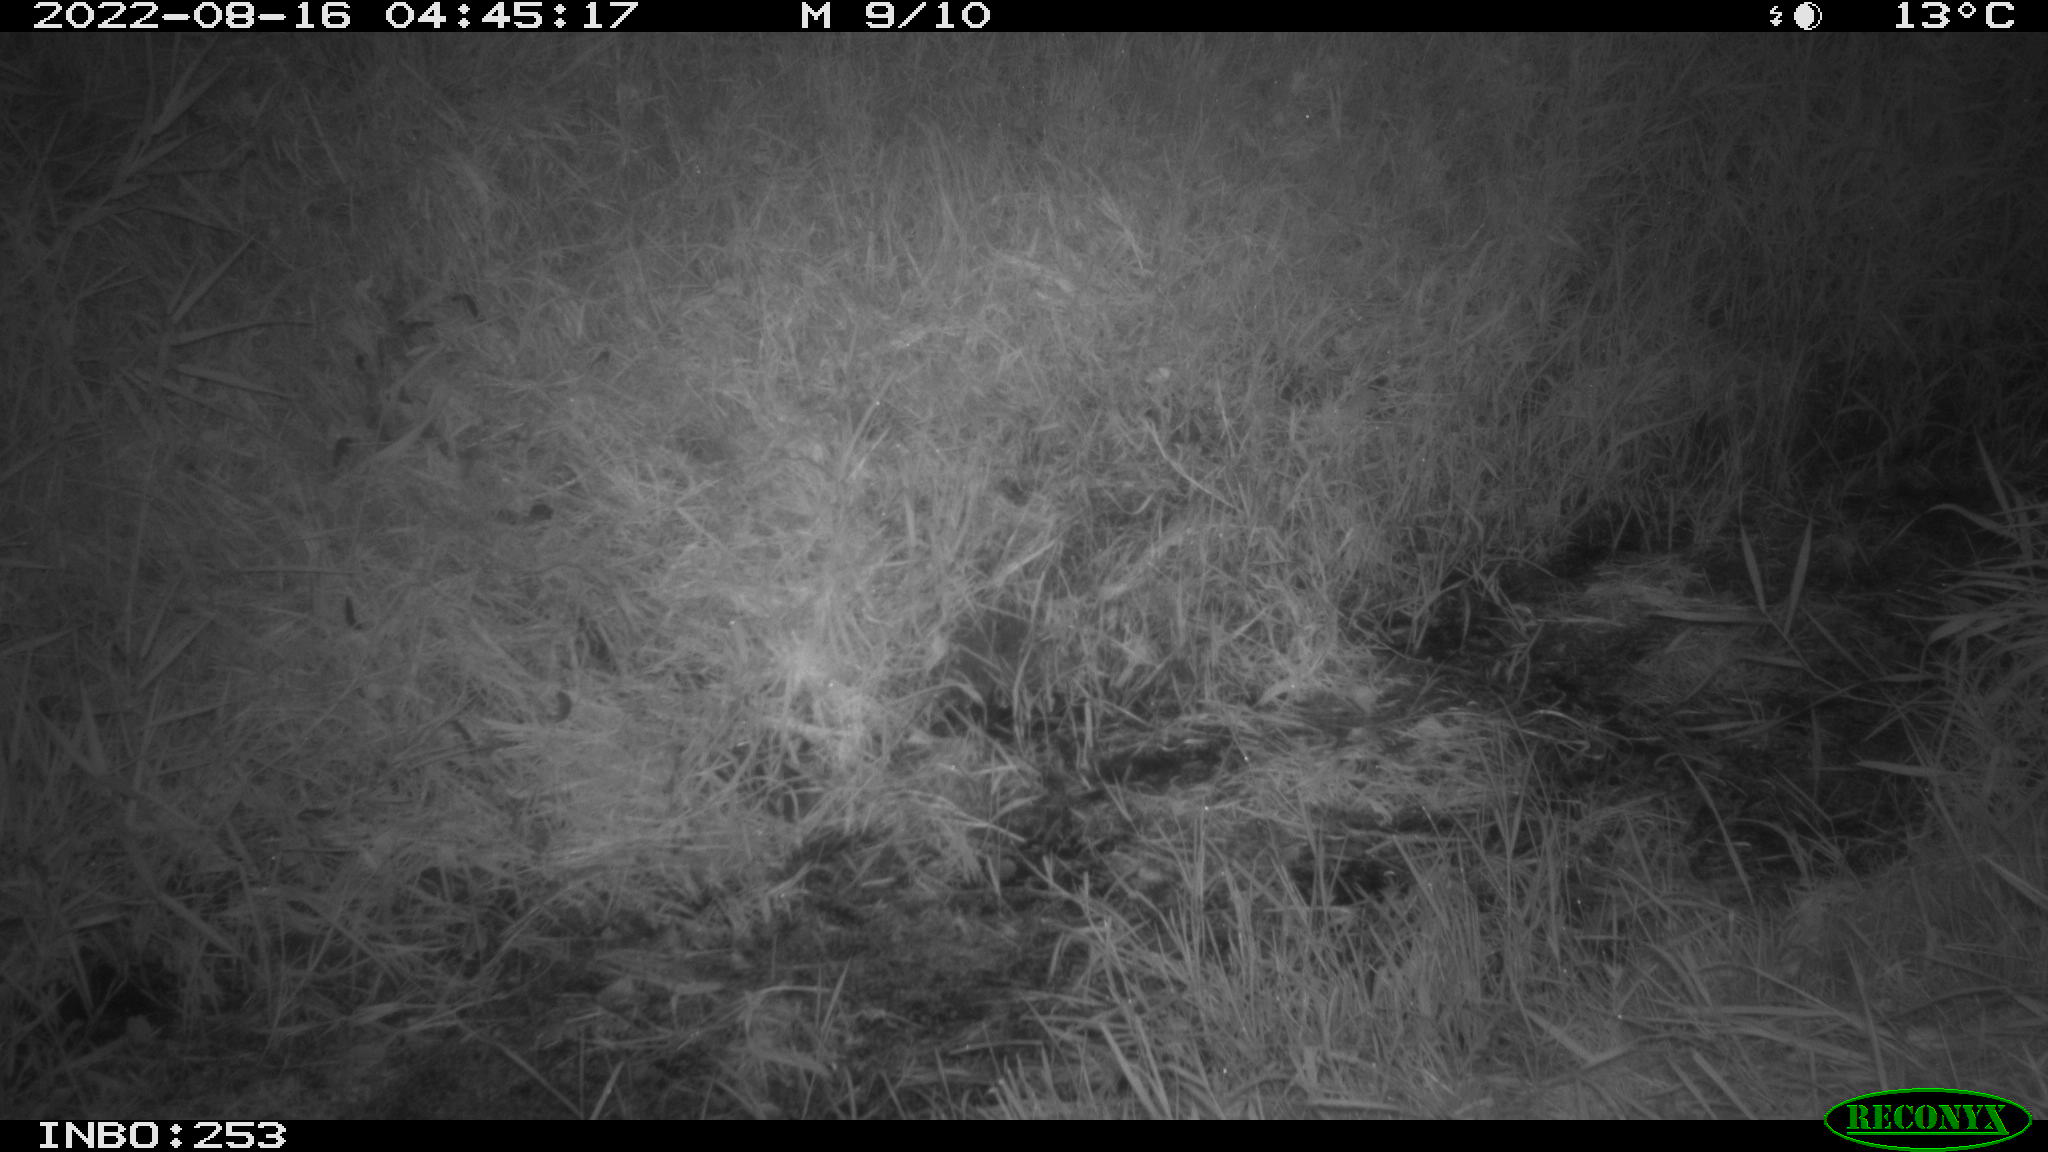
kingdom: Animalia
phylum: Chordata
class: Mammalia
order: Rodentia
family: Muridae
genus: Rattus
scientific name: Rattus norvegicus
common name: Brown rat
